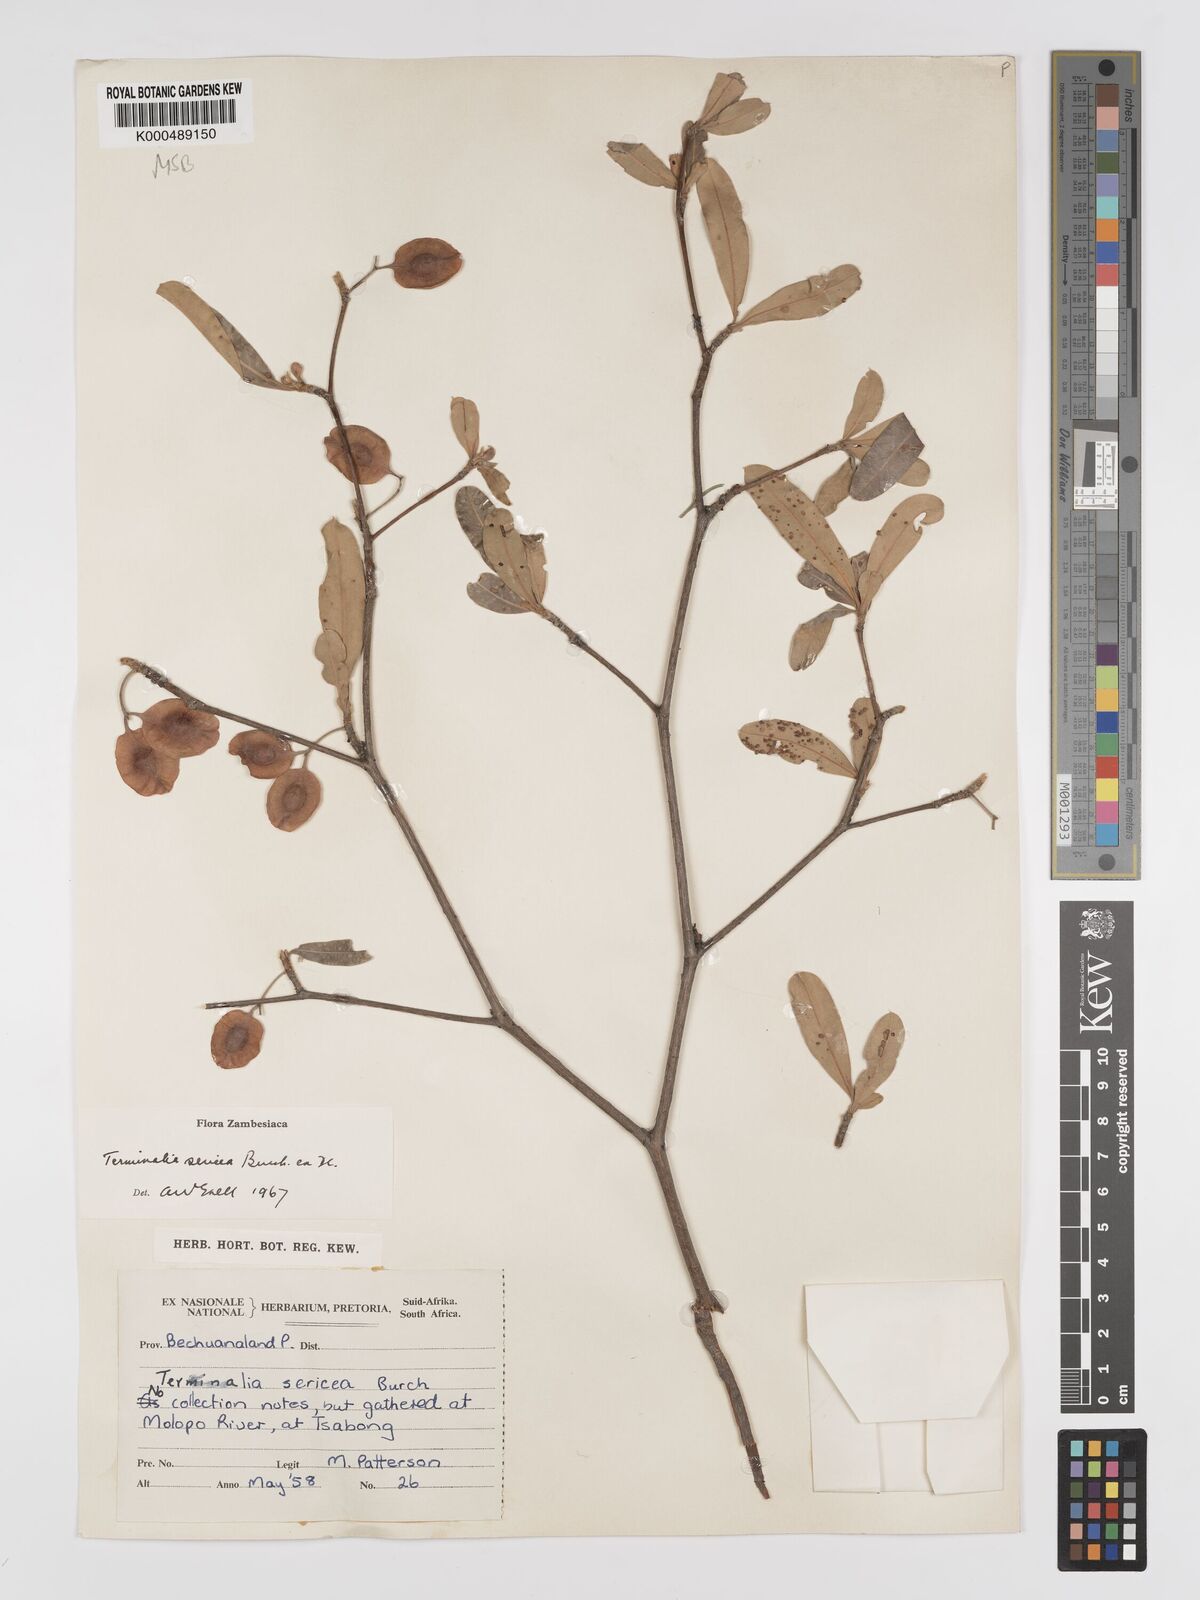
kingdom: Plantae
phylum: Tracheophyta
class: Magnoliopsida
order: Myrtales
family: Combretaceae
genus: Terminalia
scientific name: Terminalia sericea
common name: Clusterleaf
